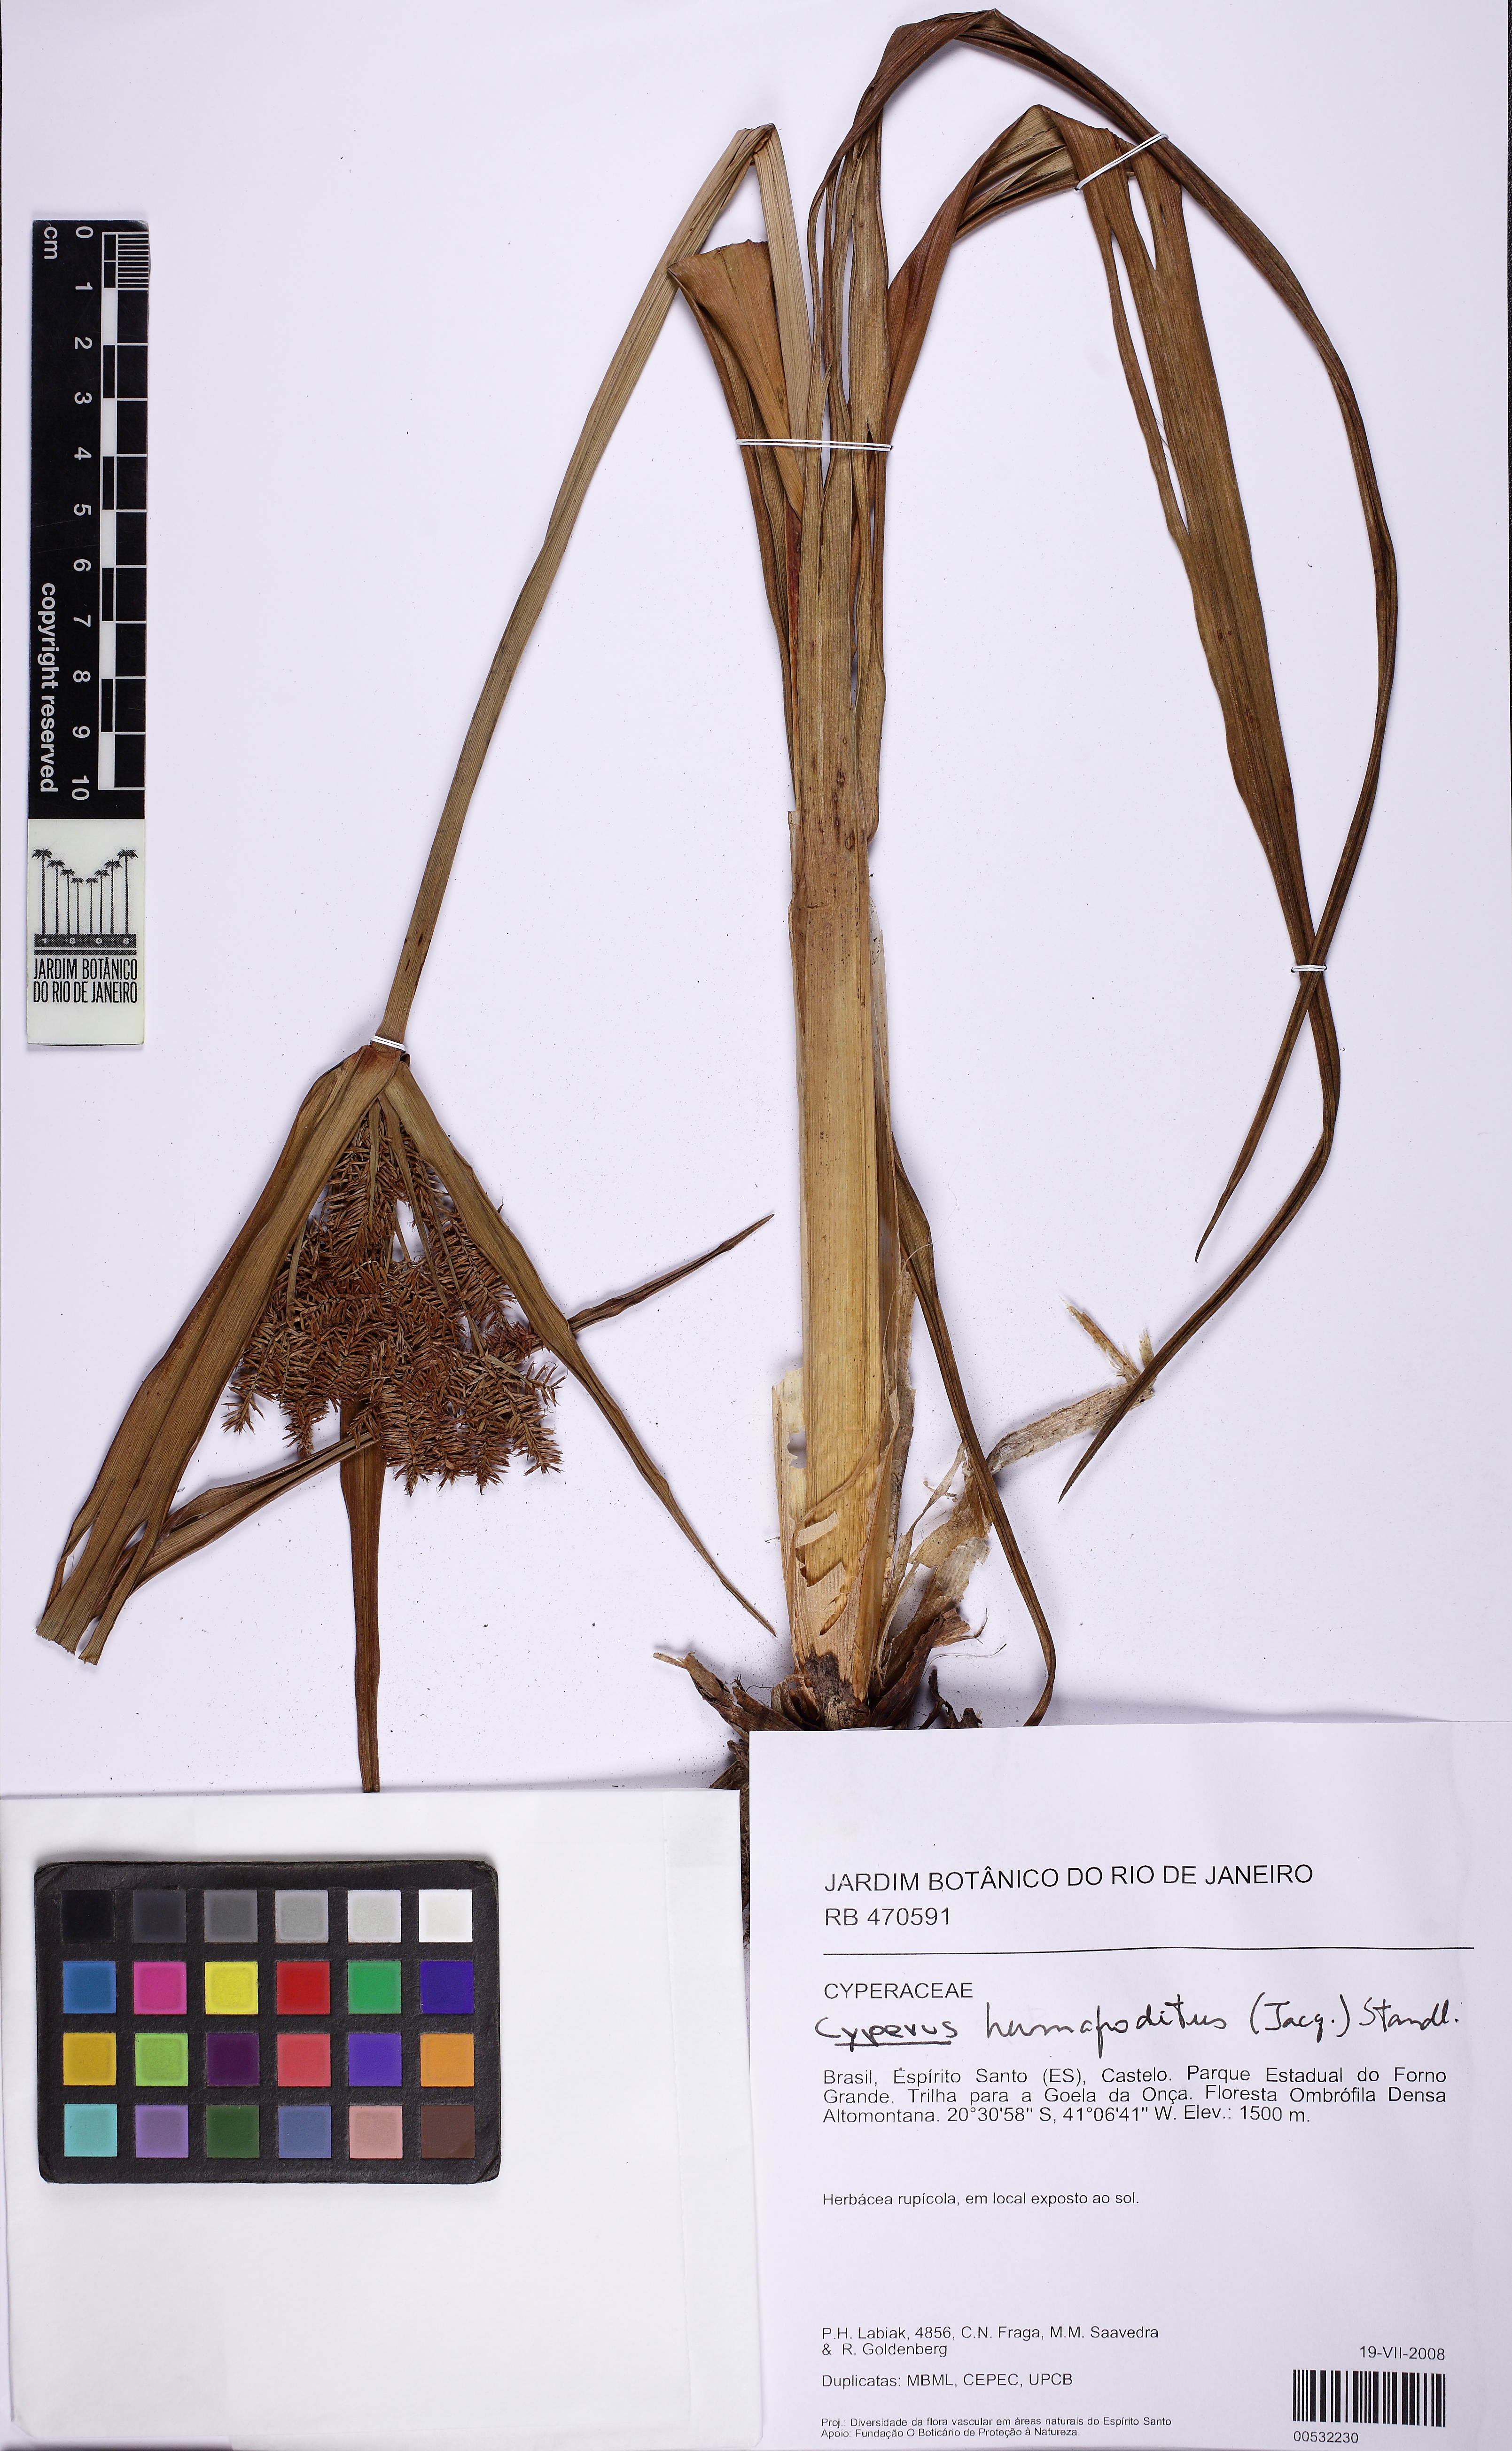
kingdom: Plantae
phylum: Tracheophyta
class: Liliopsida
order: Poales
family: Cyperaceae
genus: Cyperus
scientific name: Cyperus coriifolius
